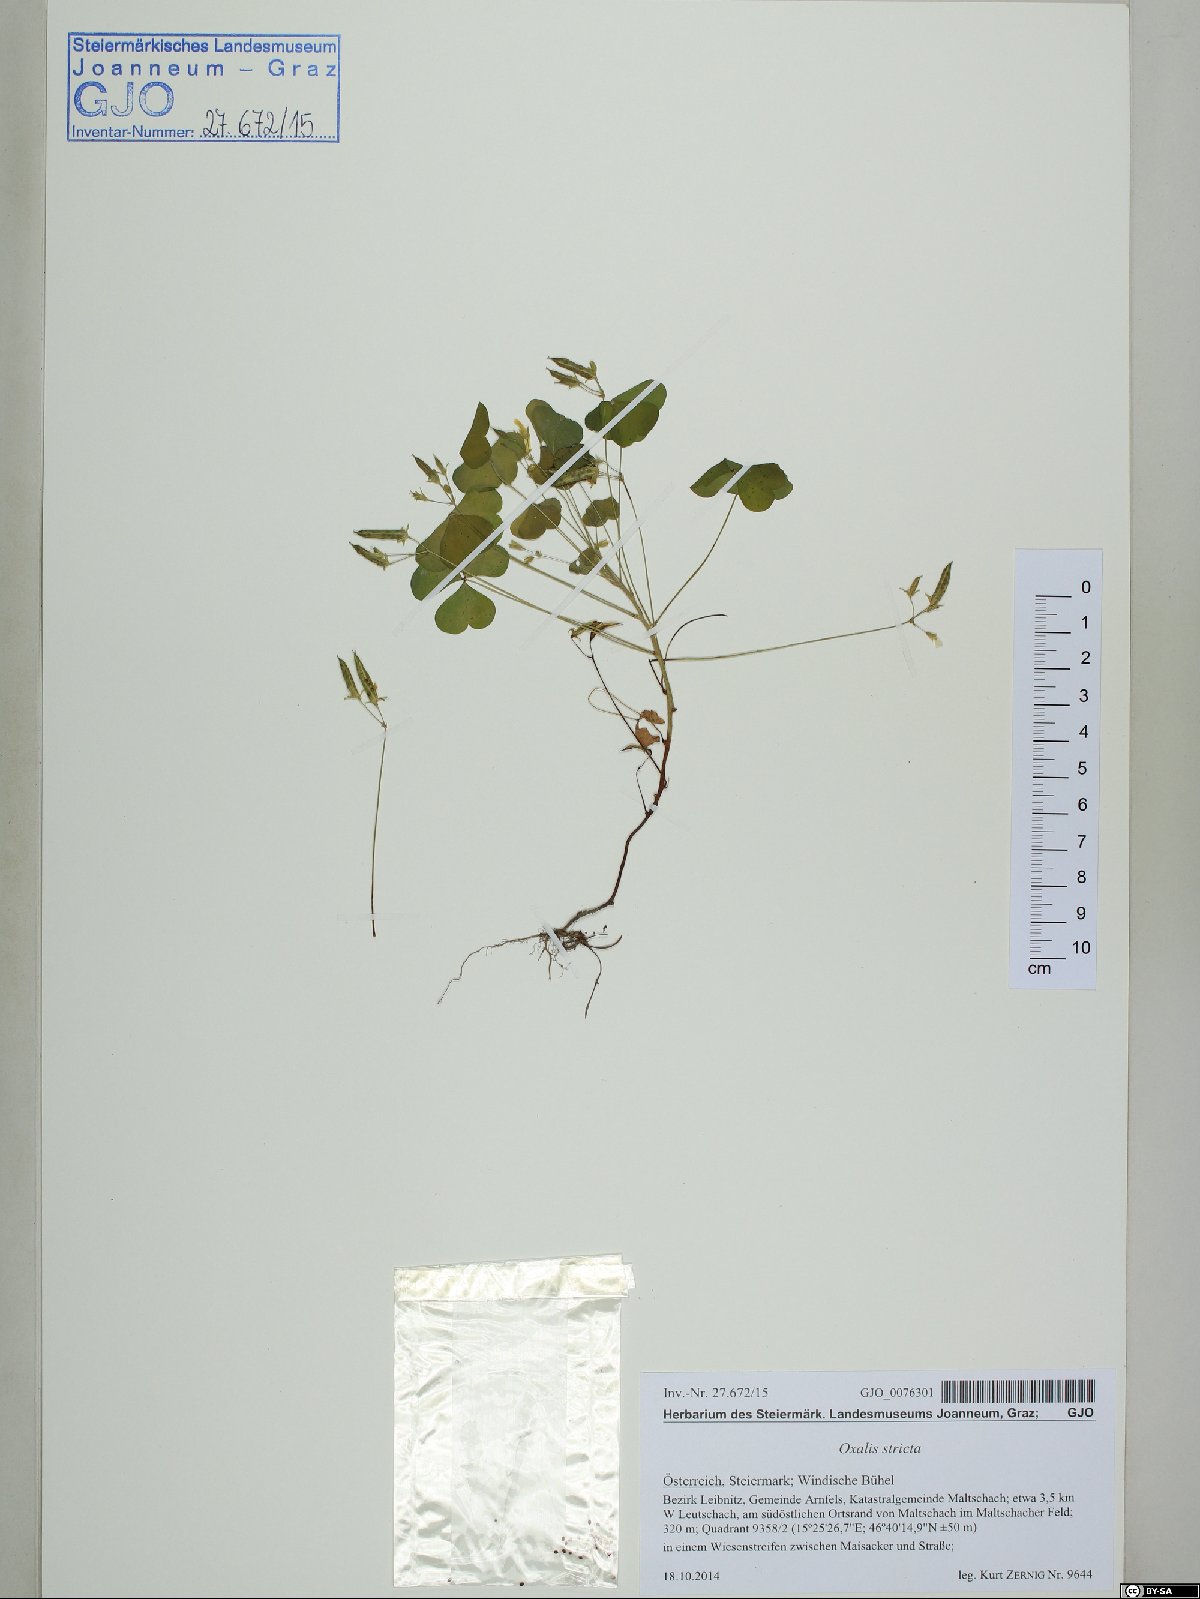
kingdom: Plantae
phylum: Tracheophyta
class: Magnoliopsida
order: Oxalidales
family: Oxalidaceae
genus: Oxalis
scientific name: Oxalis stricta
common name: Upright yellow-sorrel
